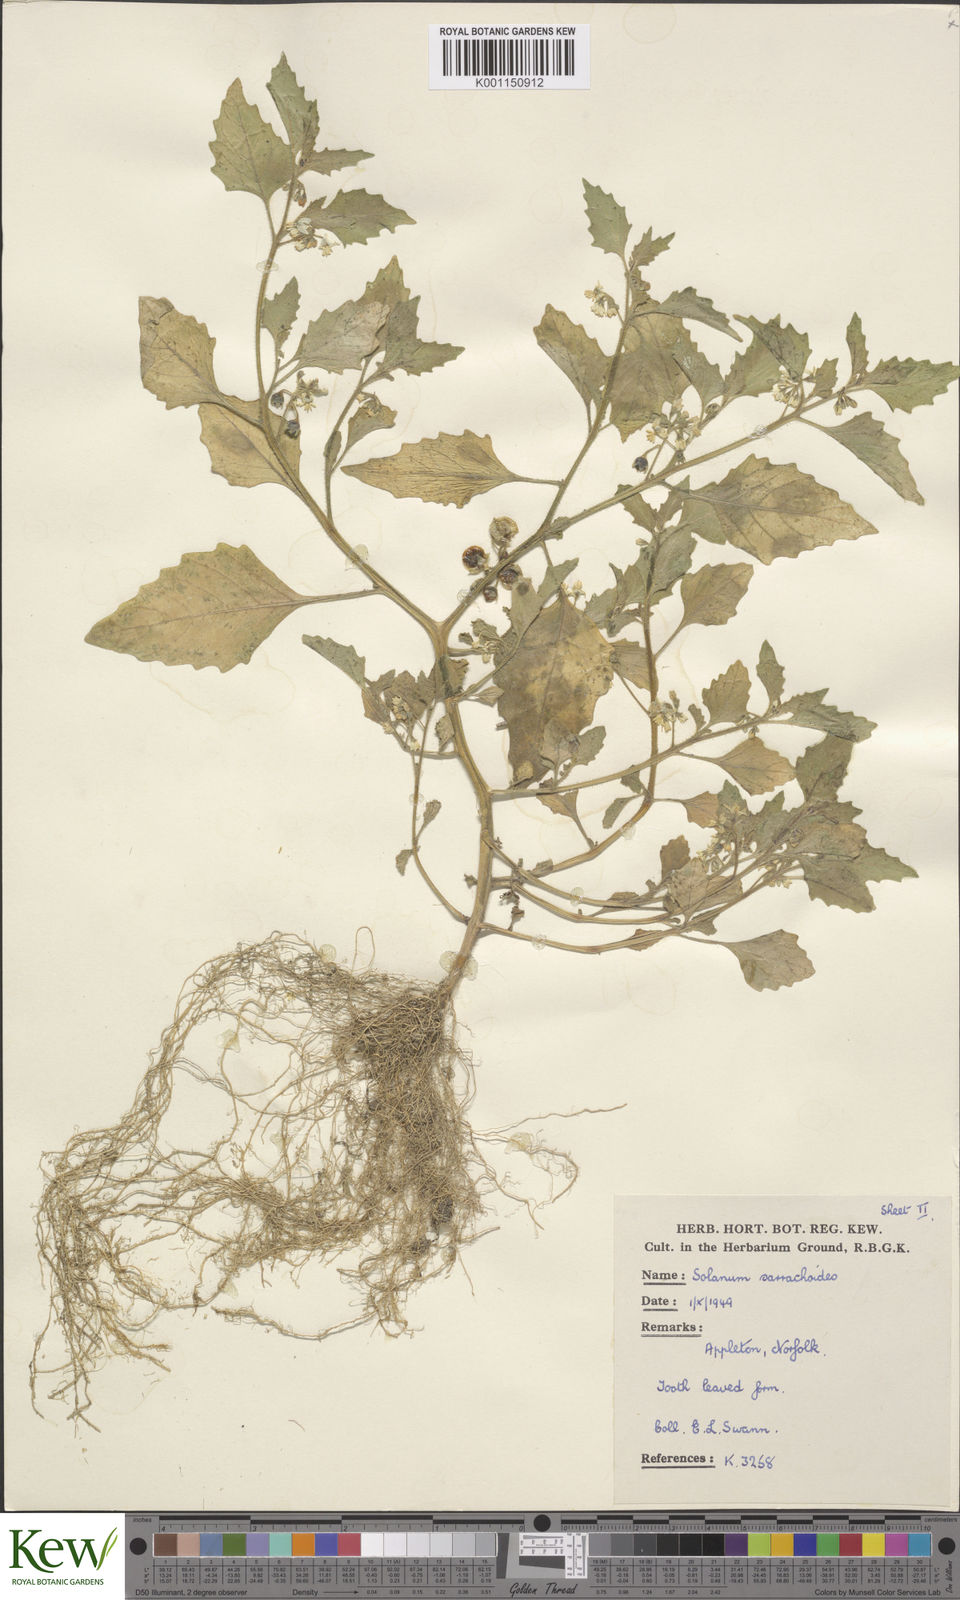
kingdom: Plantae
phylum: Tracheophyta
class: Magnoliopsida
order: Solanales
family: Solanaceae
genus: Solanum
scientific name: Solanum nitidibaccatum
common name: Hairy nightshade
